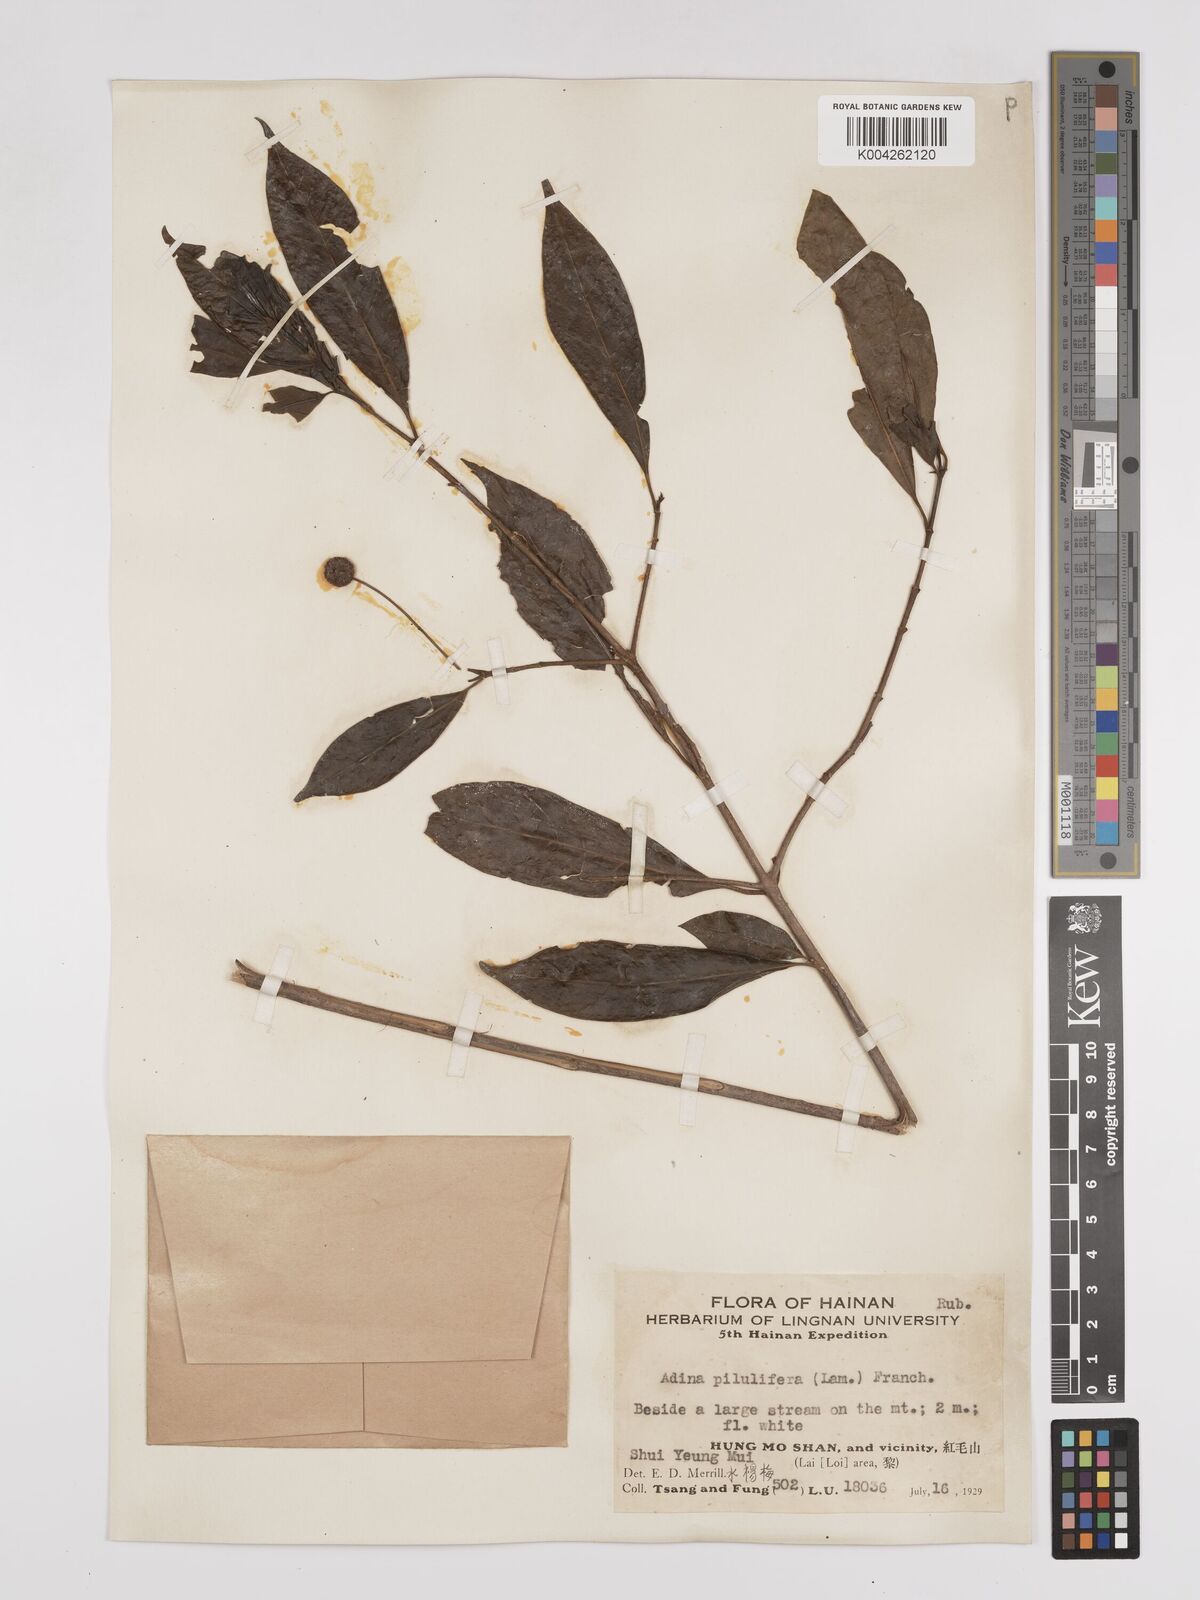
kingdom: Plantae
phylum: Tracheophyta
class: Magnoliopsida
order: Gentianales
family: Rubiaceae
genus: Adina
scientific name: Adina pilulifera
